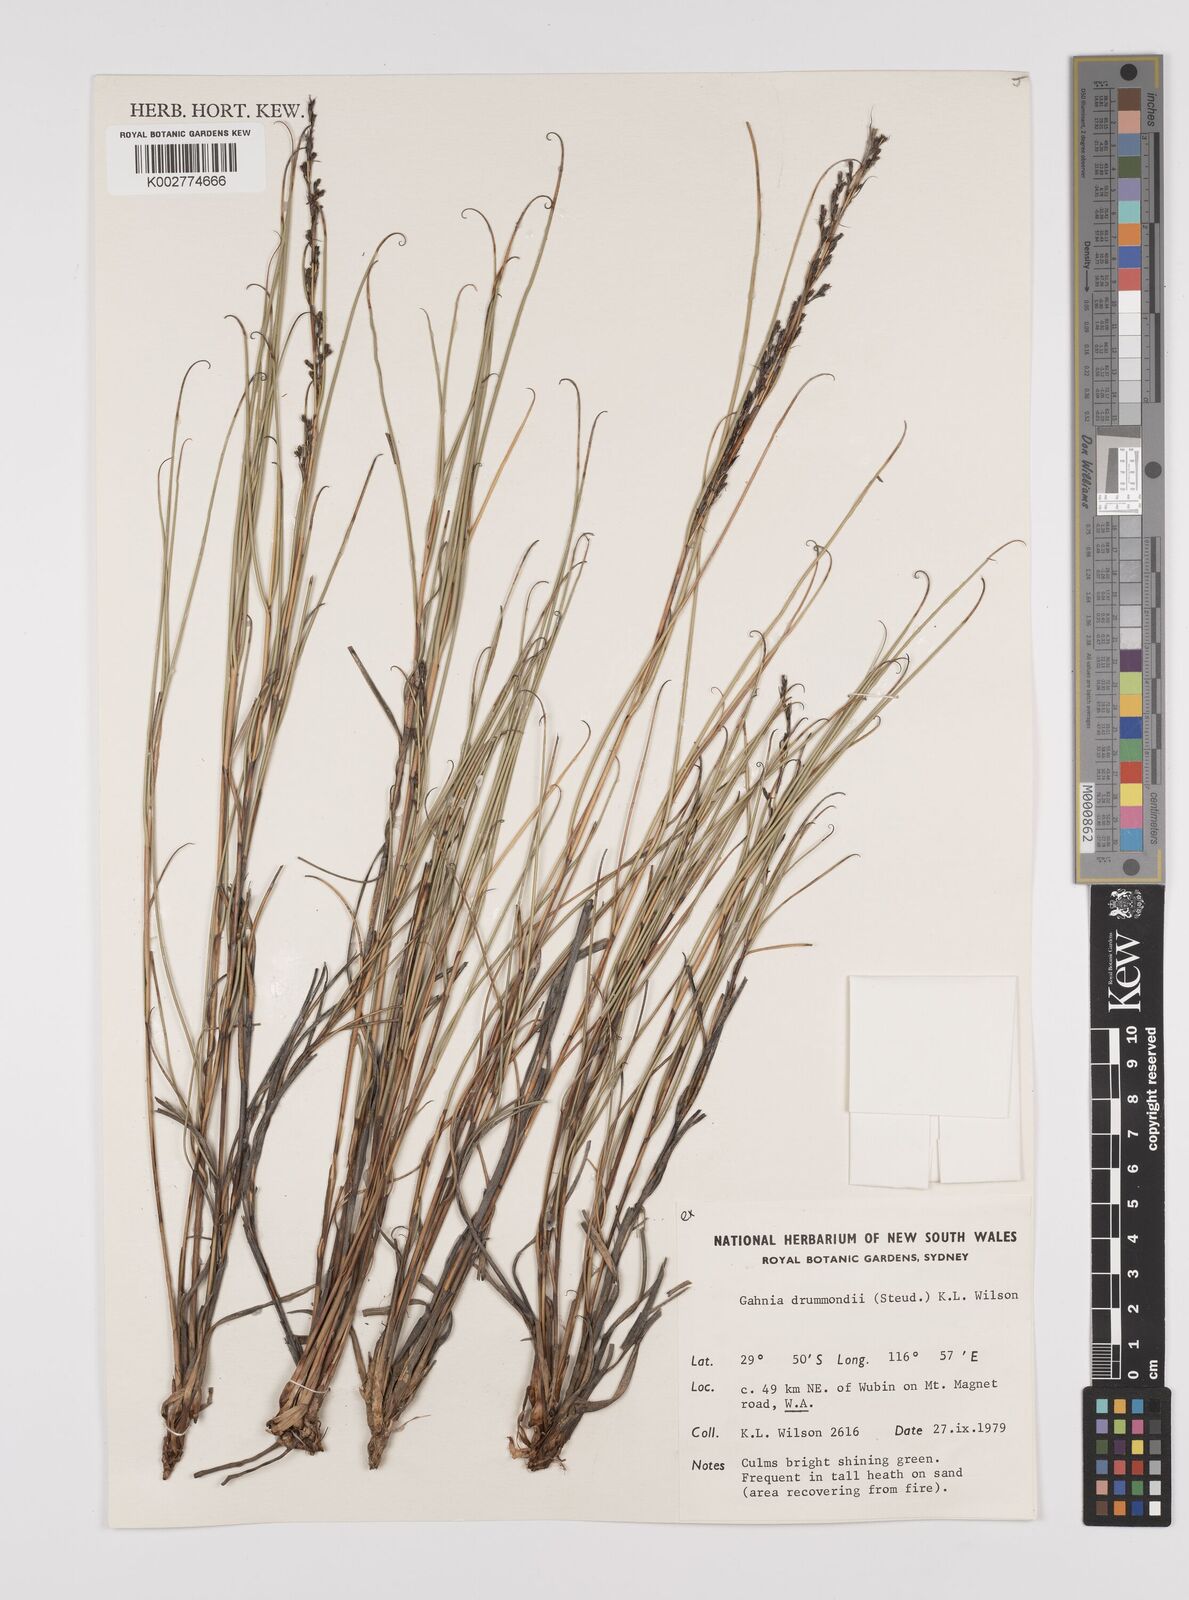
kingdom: Plantae
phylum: Tracheophyta
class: Liliopsida
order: Poales
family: Cyperaceae
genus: Gahnia
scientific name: Gahnia drummondii
